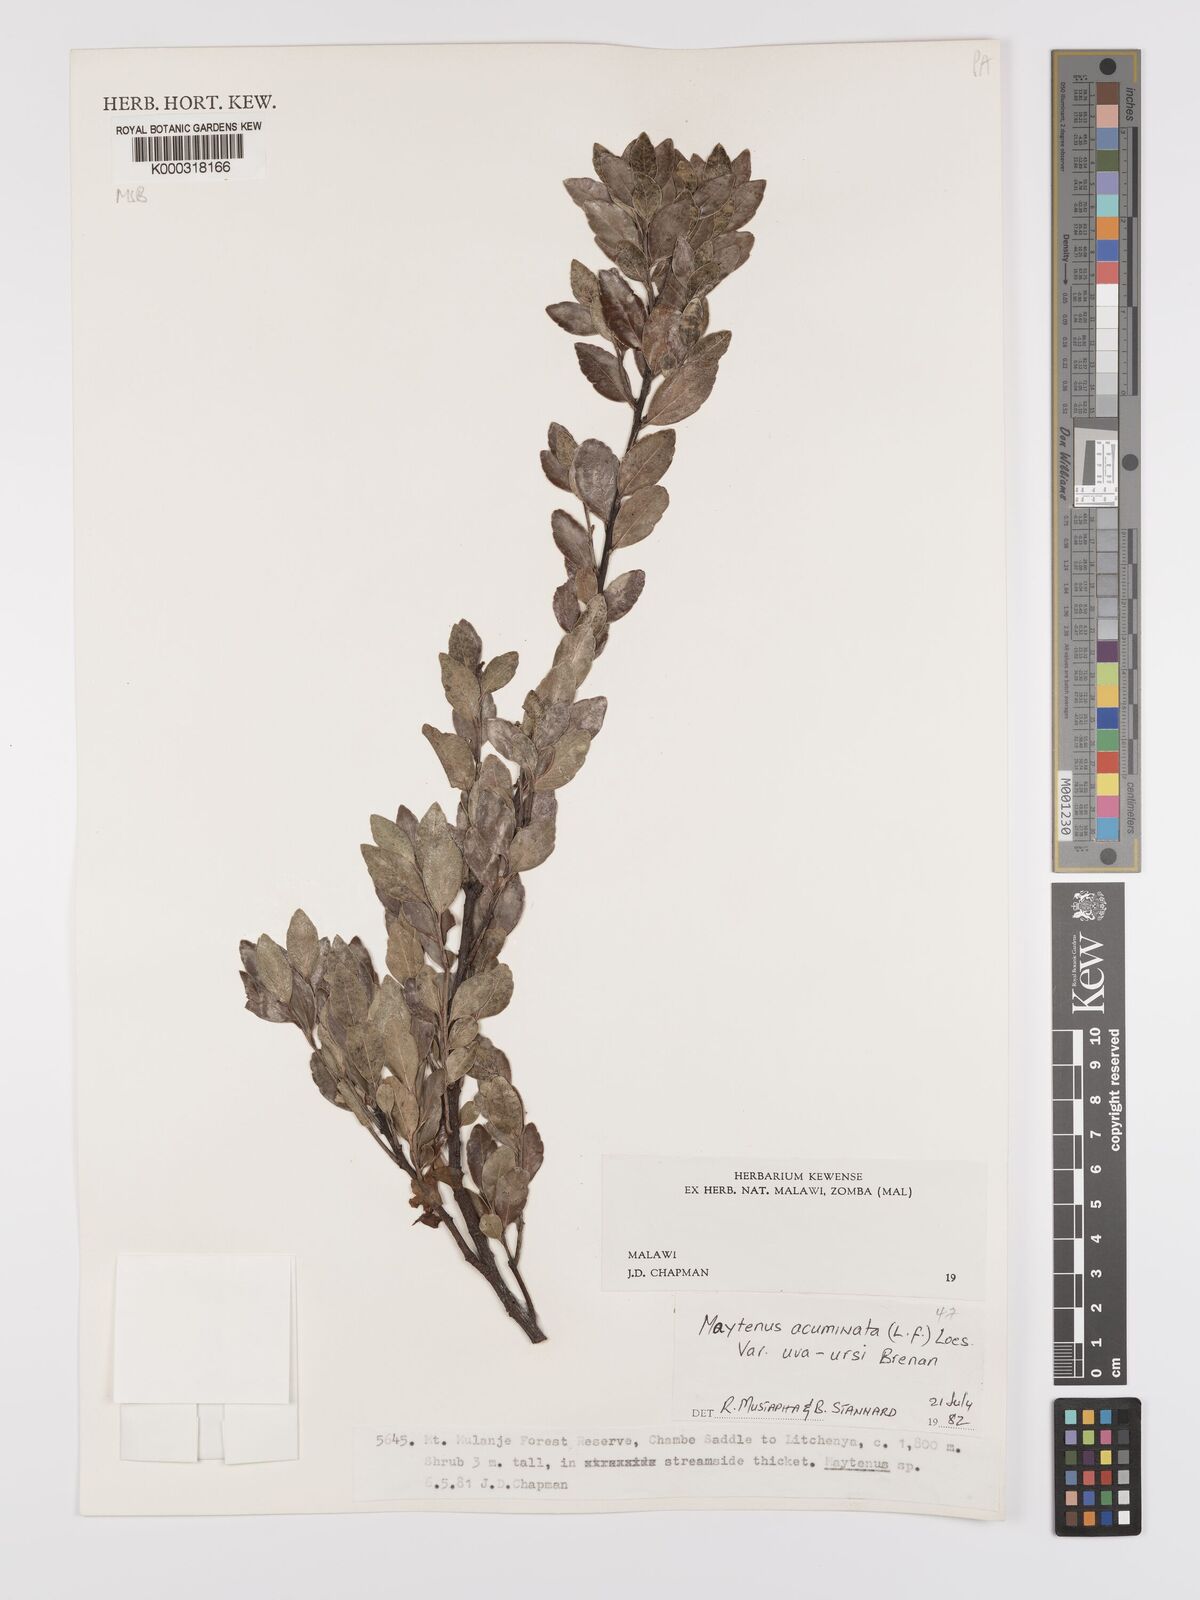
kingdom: Plantae
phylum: Tracheophyta
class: Magnoliopsida
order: Celastrales
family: Celastraceae
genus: Maytenus
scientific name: Maytenus
